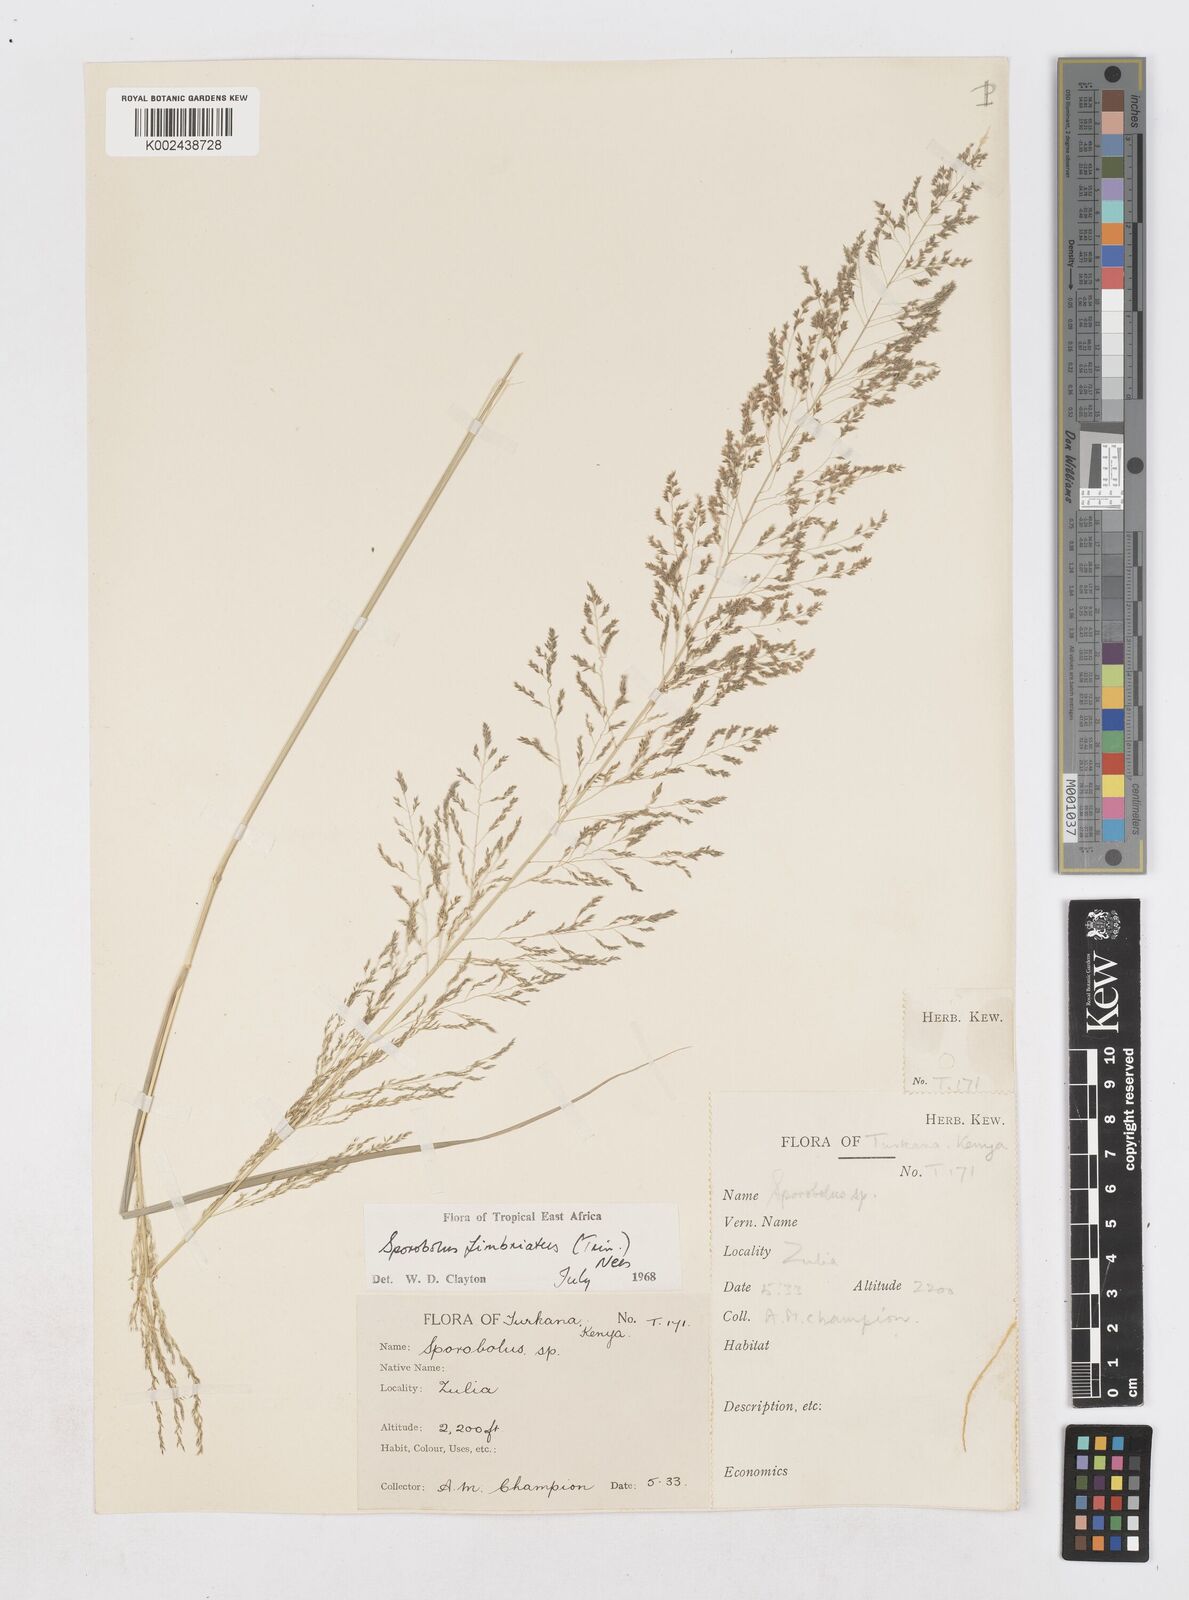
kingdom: Plantae
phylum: Tracheophyta
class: Liliopsida
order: Poales
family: Poaceae
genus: Sporobolus
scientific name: Sporobolus fimbriatus
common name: Fringed dropseed
